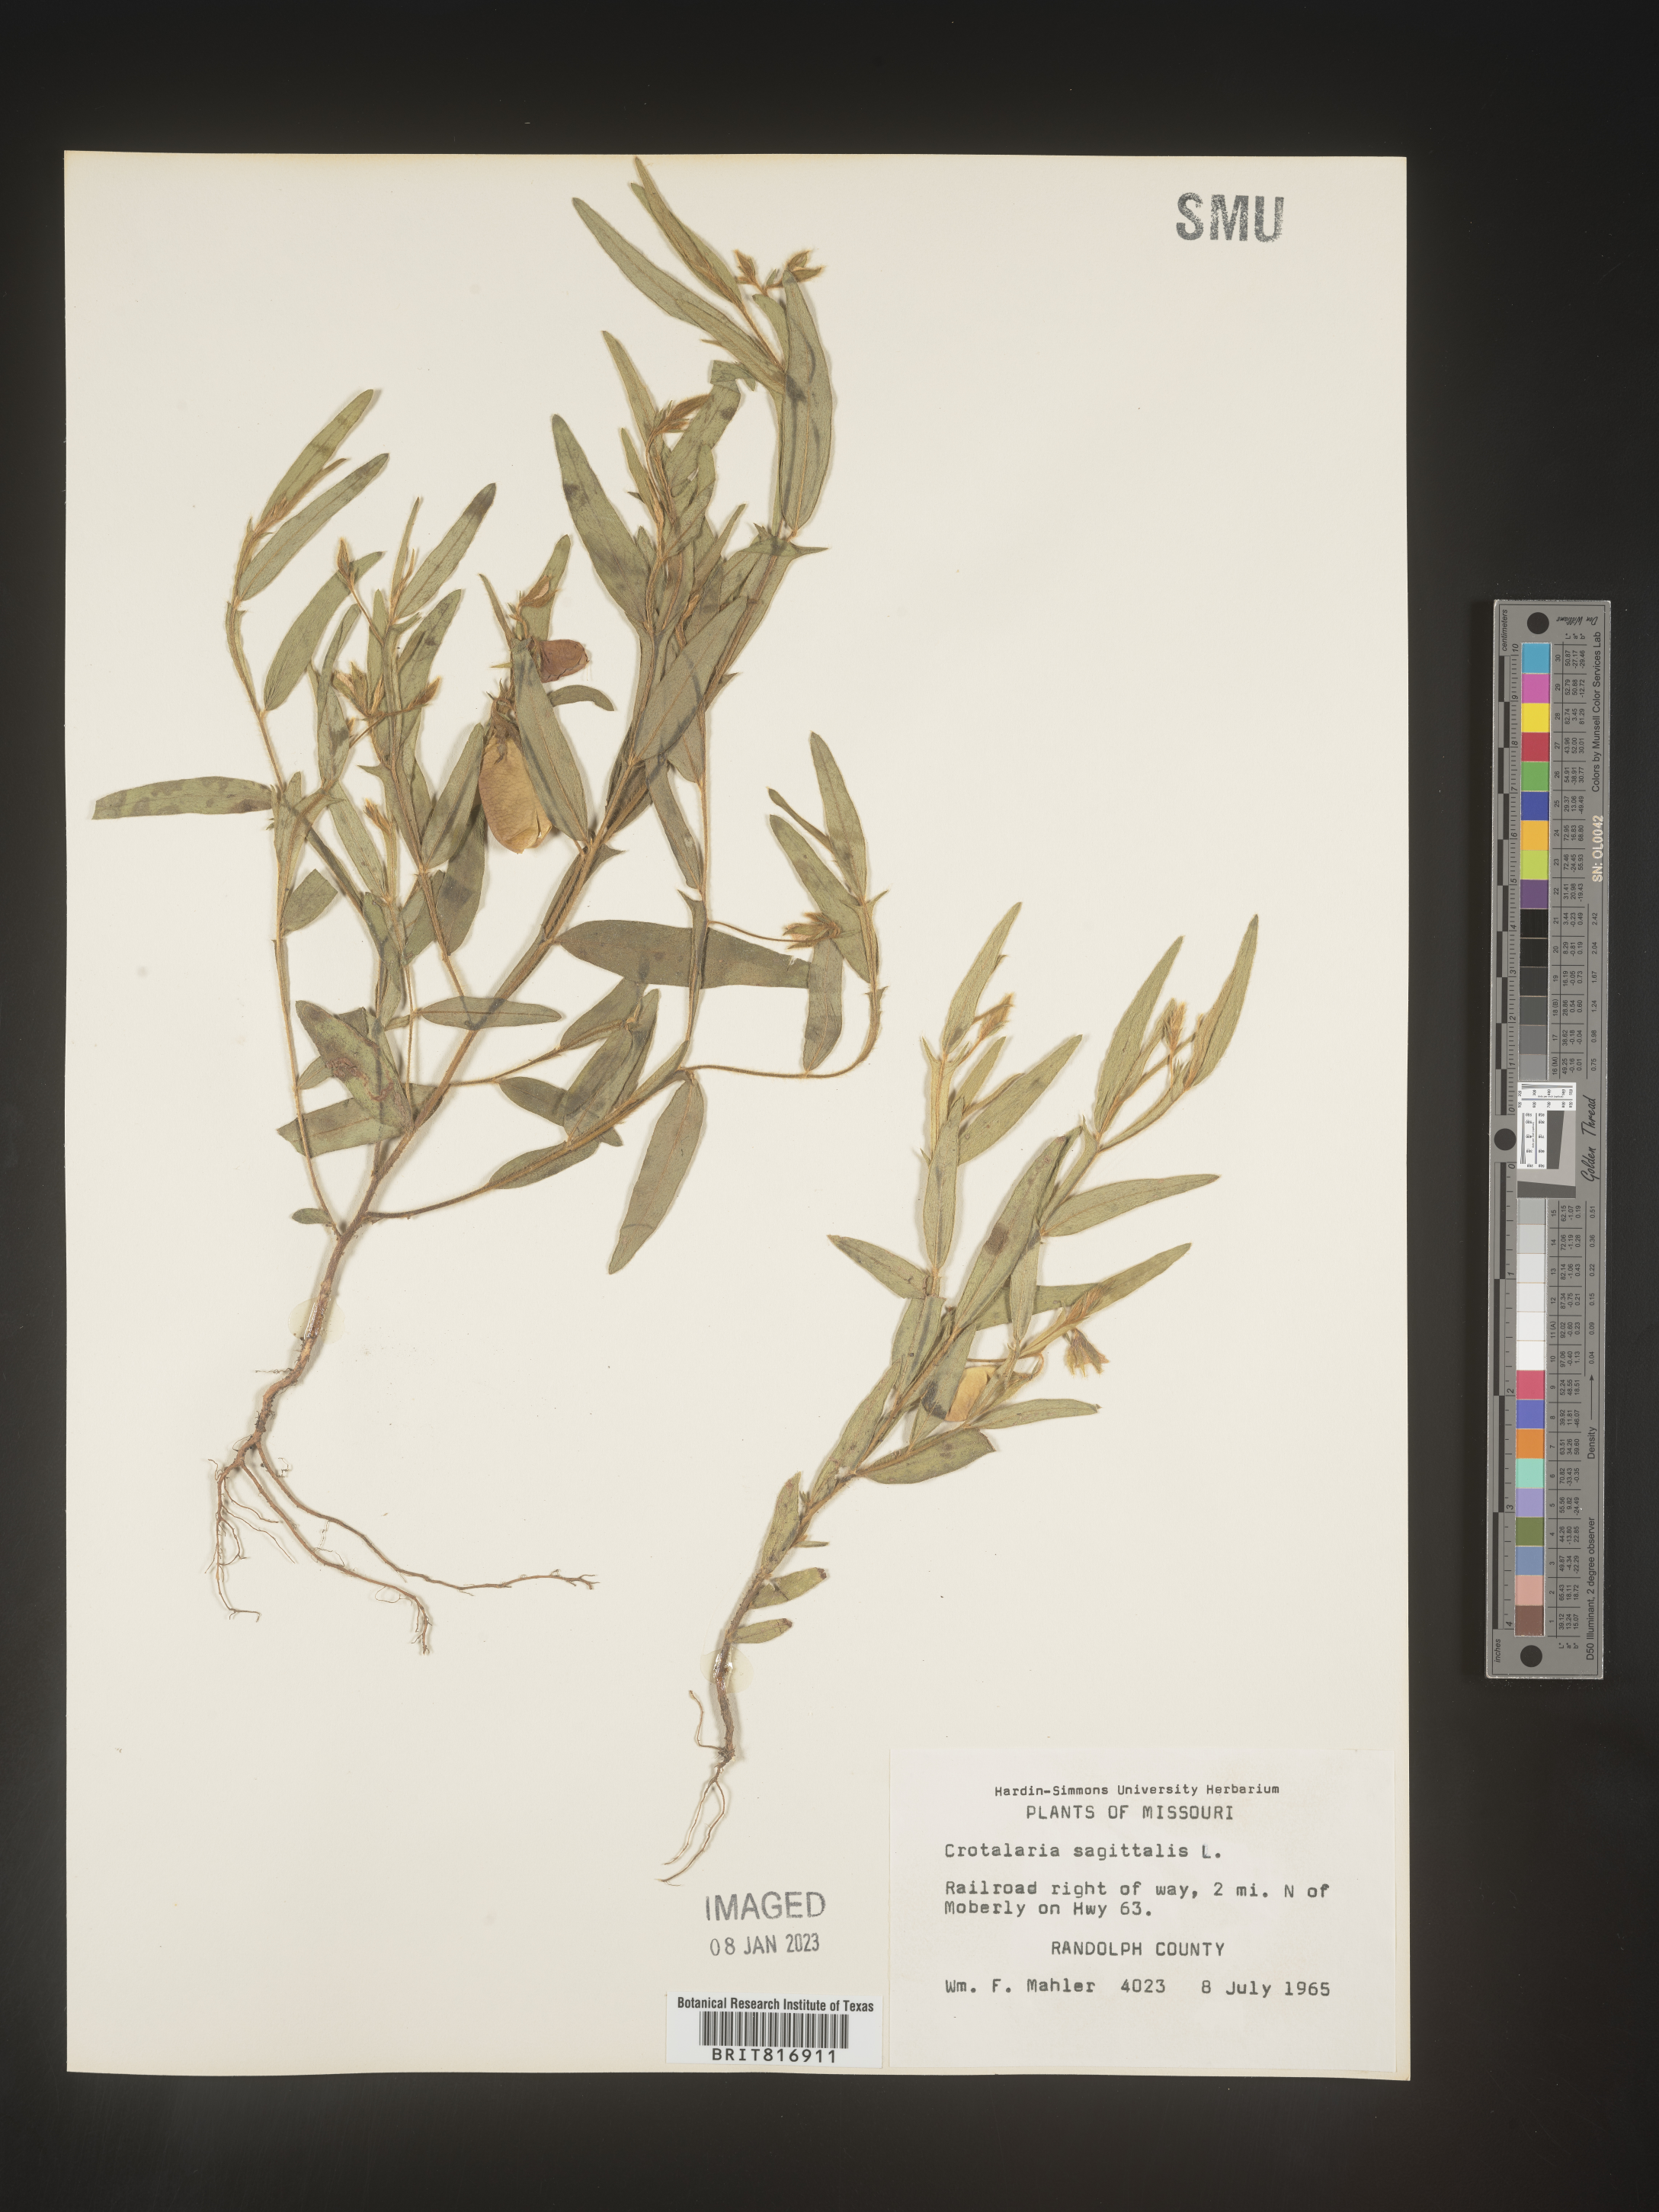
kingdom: Plantae
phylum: Tracheophyta
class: Magnoliopsida
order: Fabales
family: Fabaceae
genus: Crotalaria
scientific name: Crotalaria sagittalis
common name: Arrowhead rattlebox
